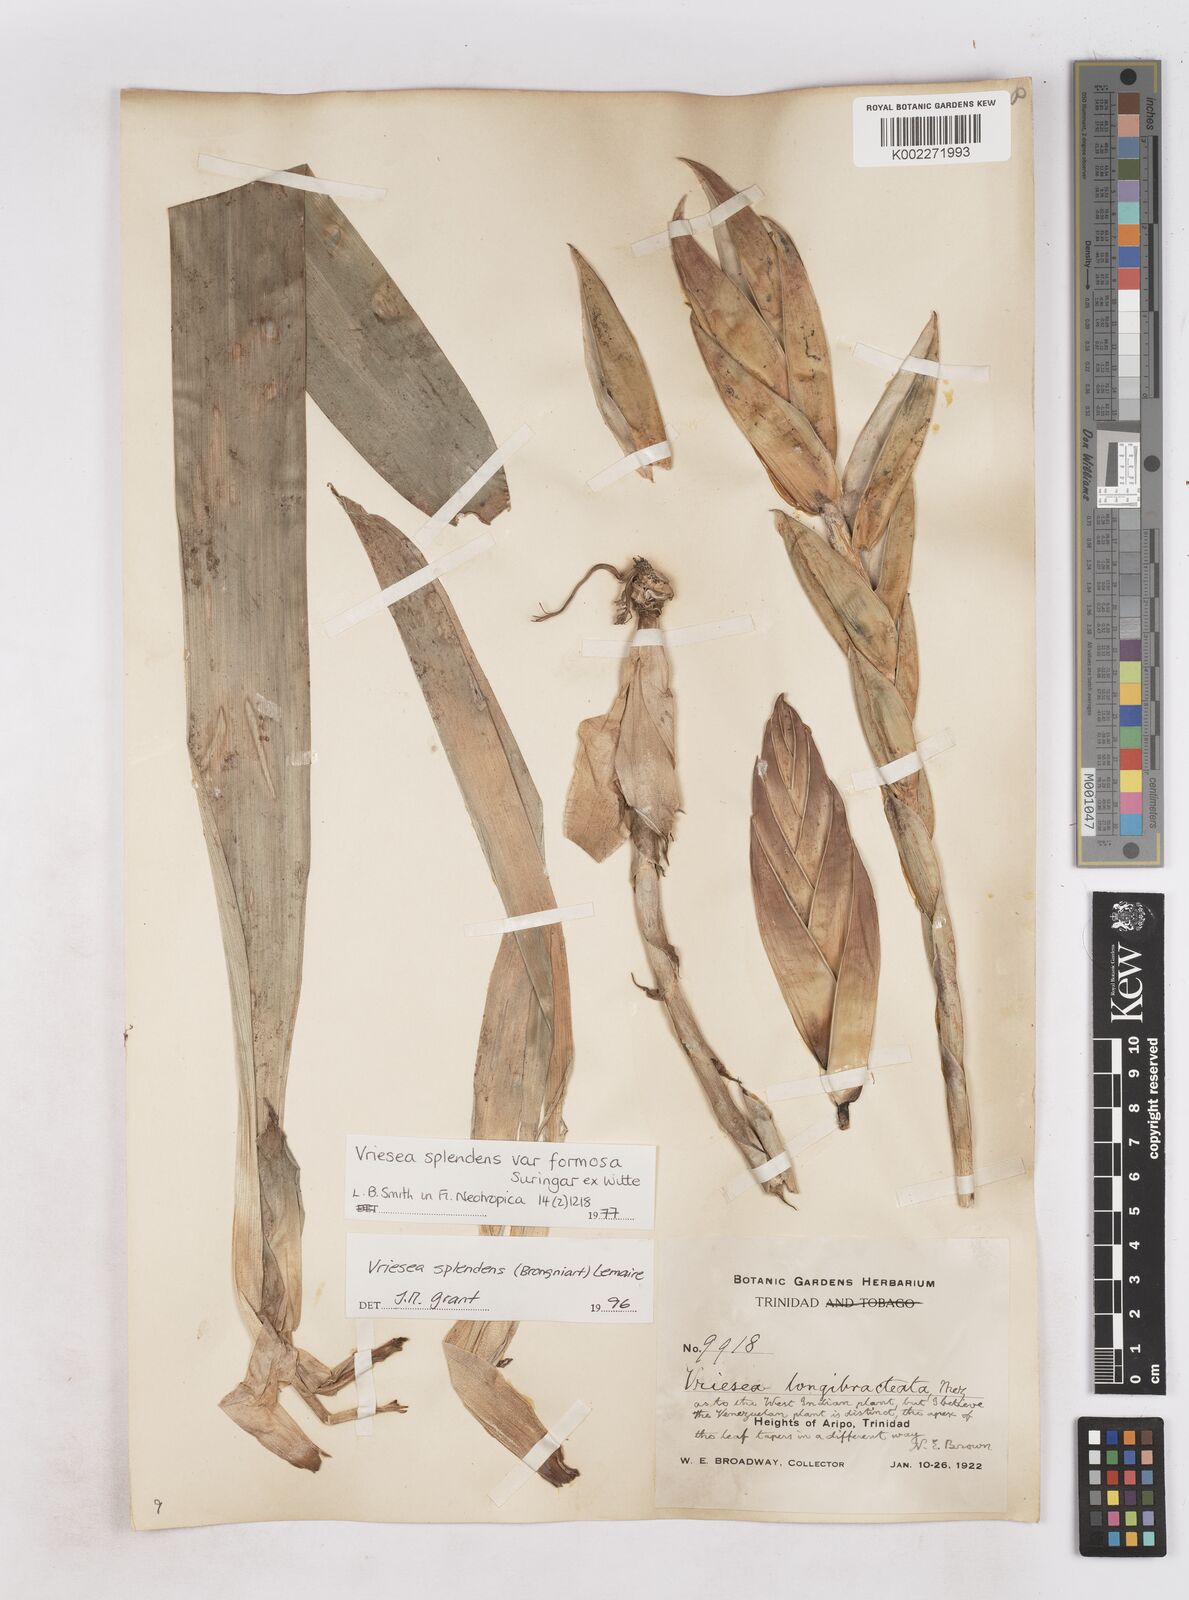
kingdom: Plantae
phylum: Tracheophyta
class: Liliopsida
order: Poales
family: Bromeliaceae
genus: Lutheria
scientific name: Lutheria splendens
